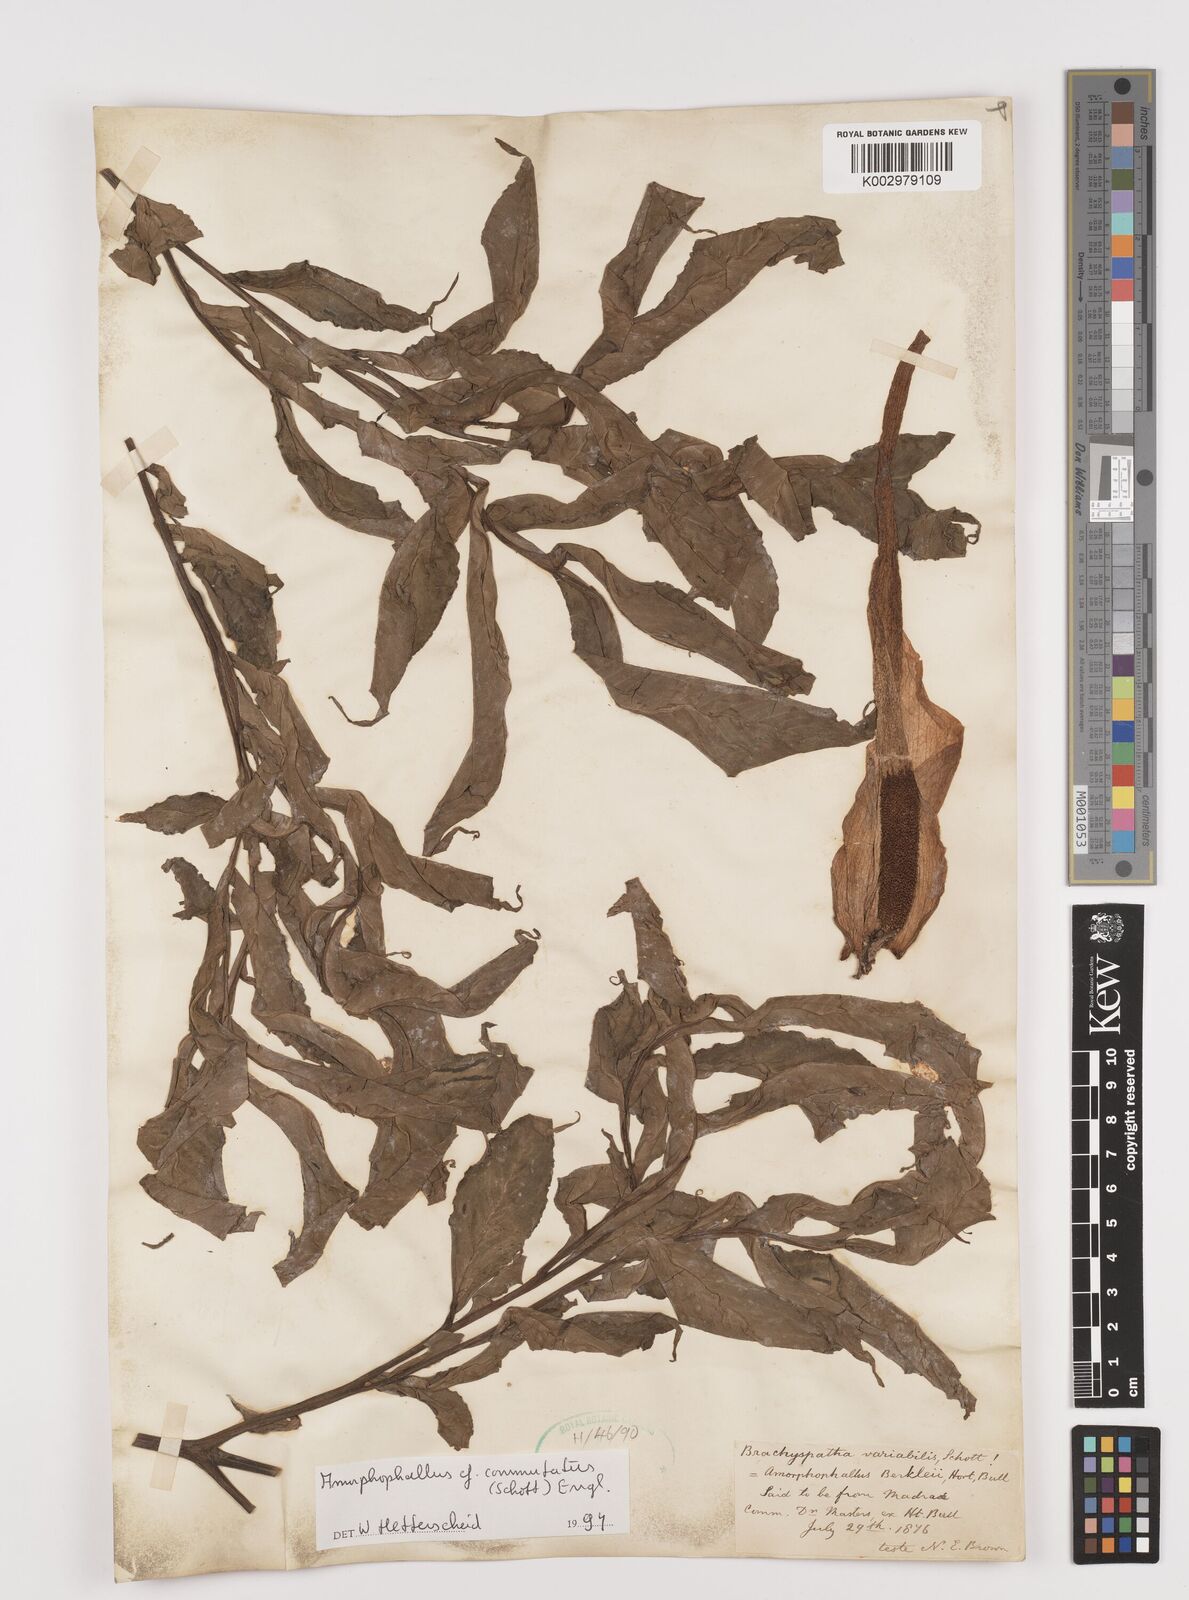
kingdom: Plantae
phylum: Tracheophyta
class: Liliopsida
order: Alismatales
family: Araceae
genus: Amorphophallus
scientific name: Amorphophallus commutatus
